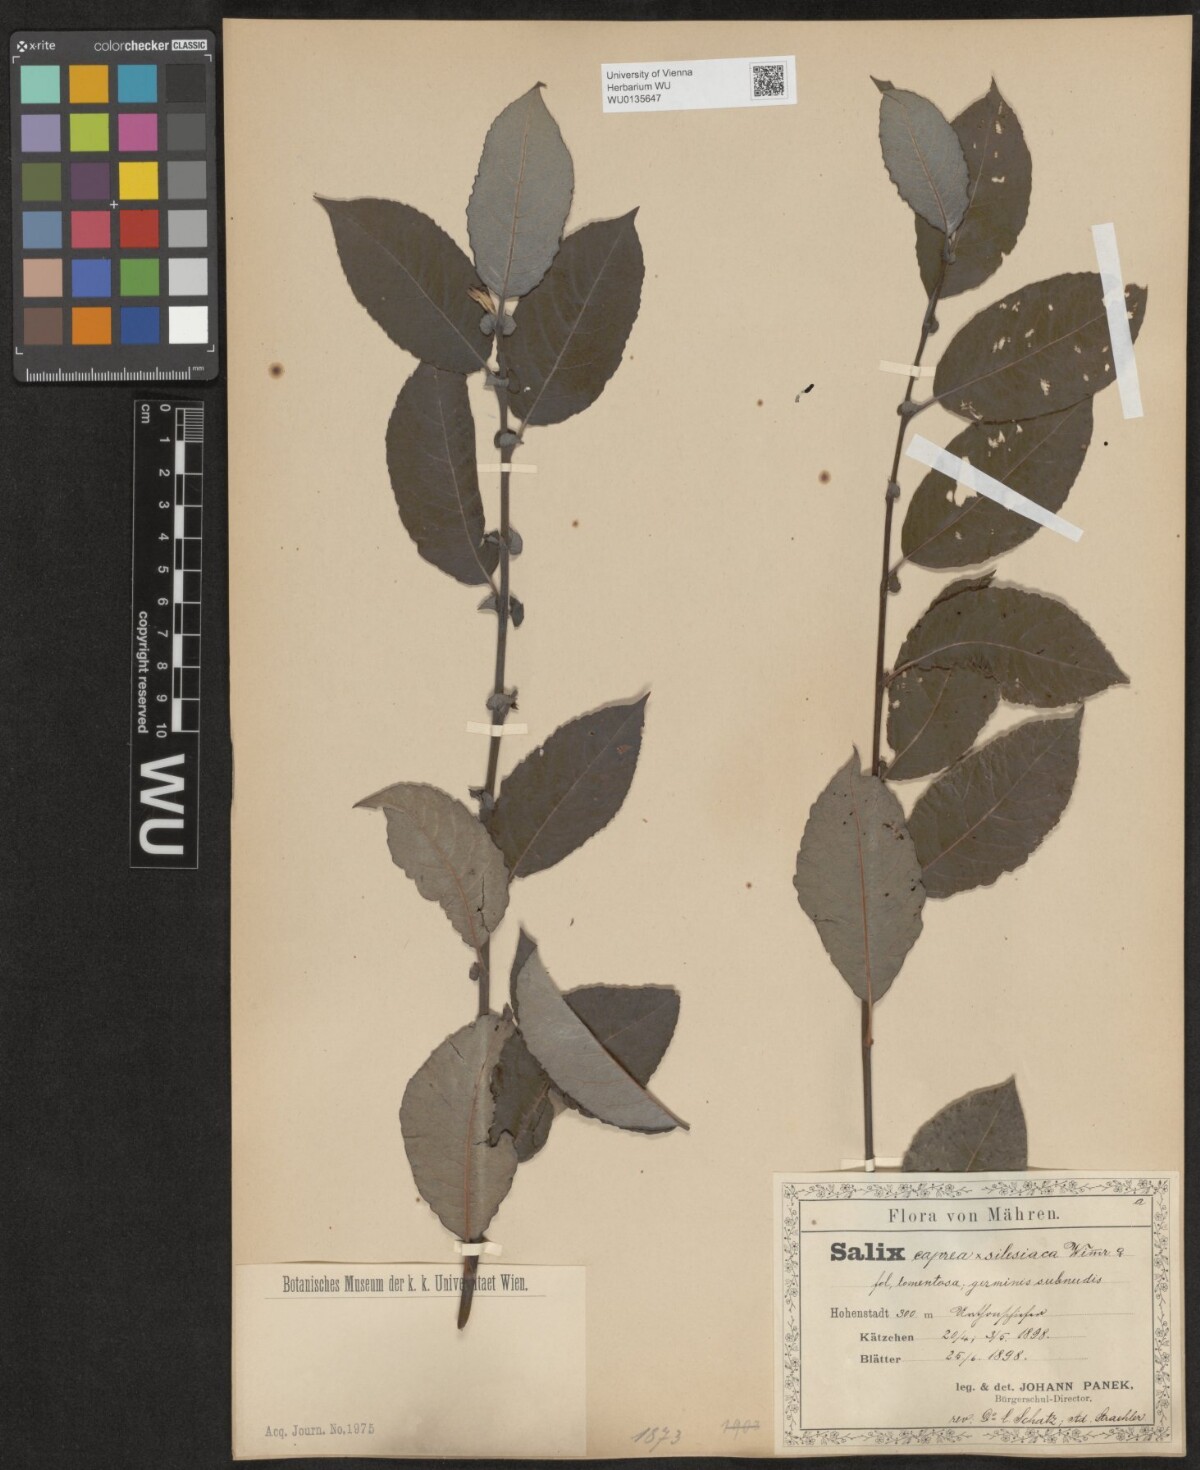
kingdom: Plantae
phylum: Tracheophyta
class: Magnoliopsida
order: Malpighiales
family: Salicaceae
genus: Salix
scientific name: Salix
